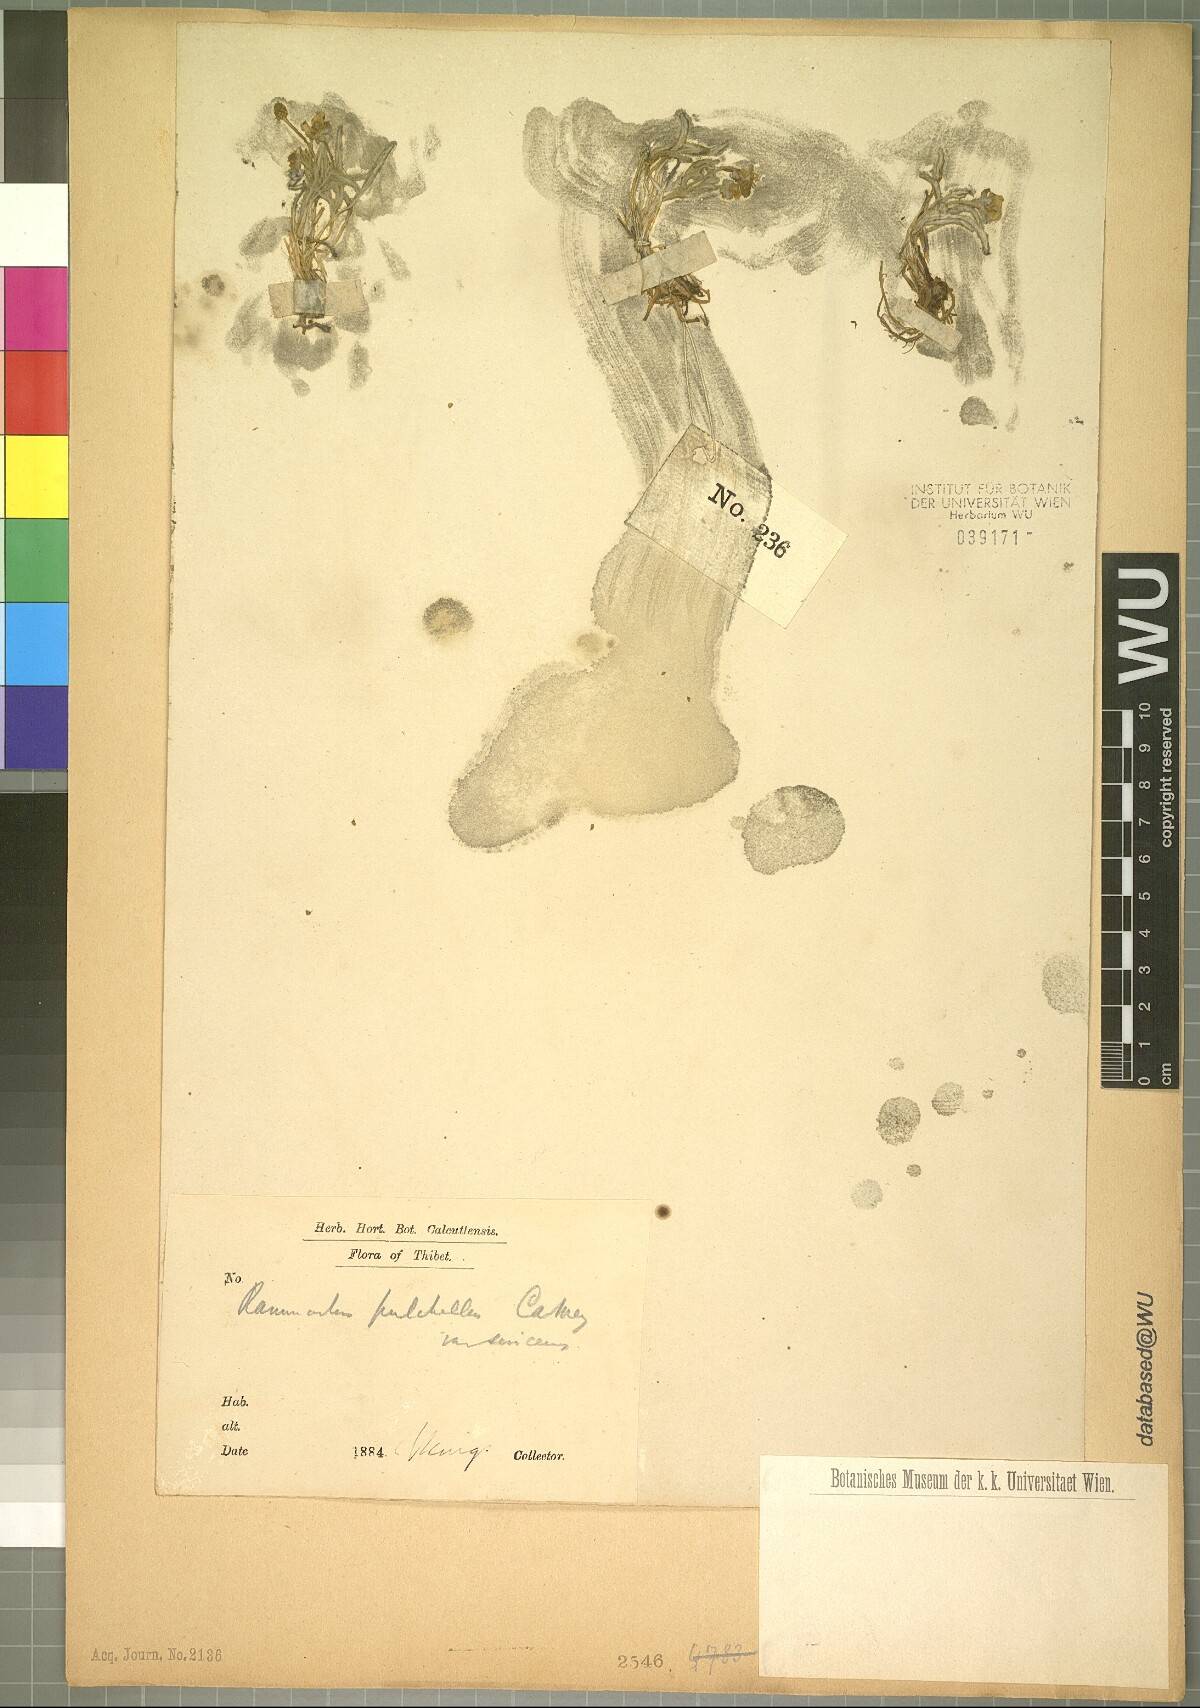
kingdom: Plantae
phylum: Tracheophyta
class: Magnoliopsida
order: Ranunculales
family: Ranunculaceae
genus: Ranunculus
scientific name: Ranunculus pulchellus
